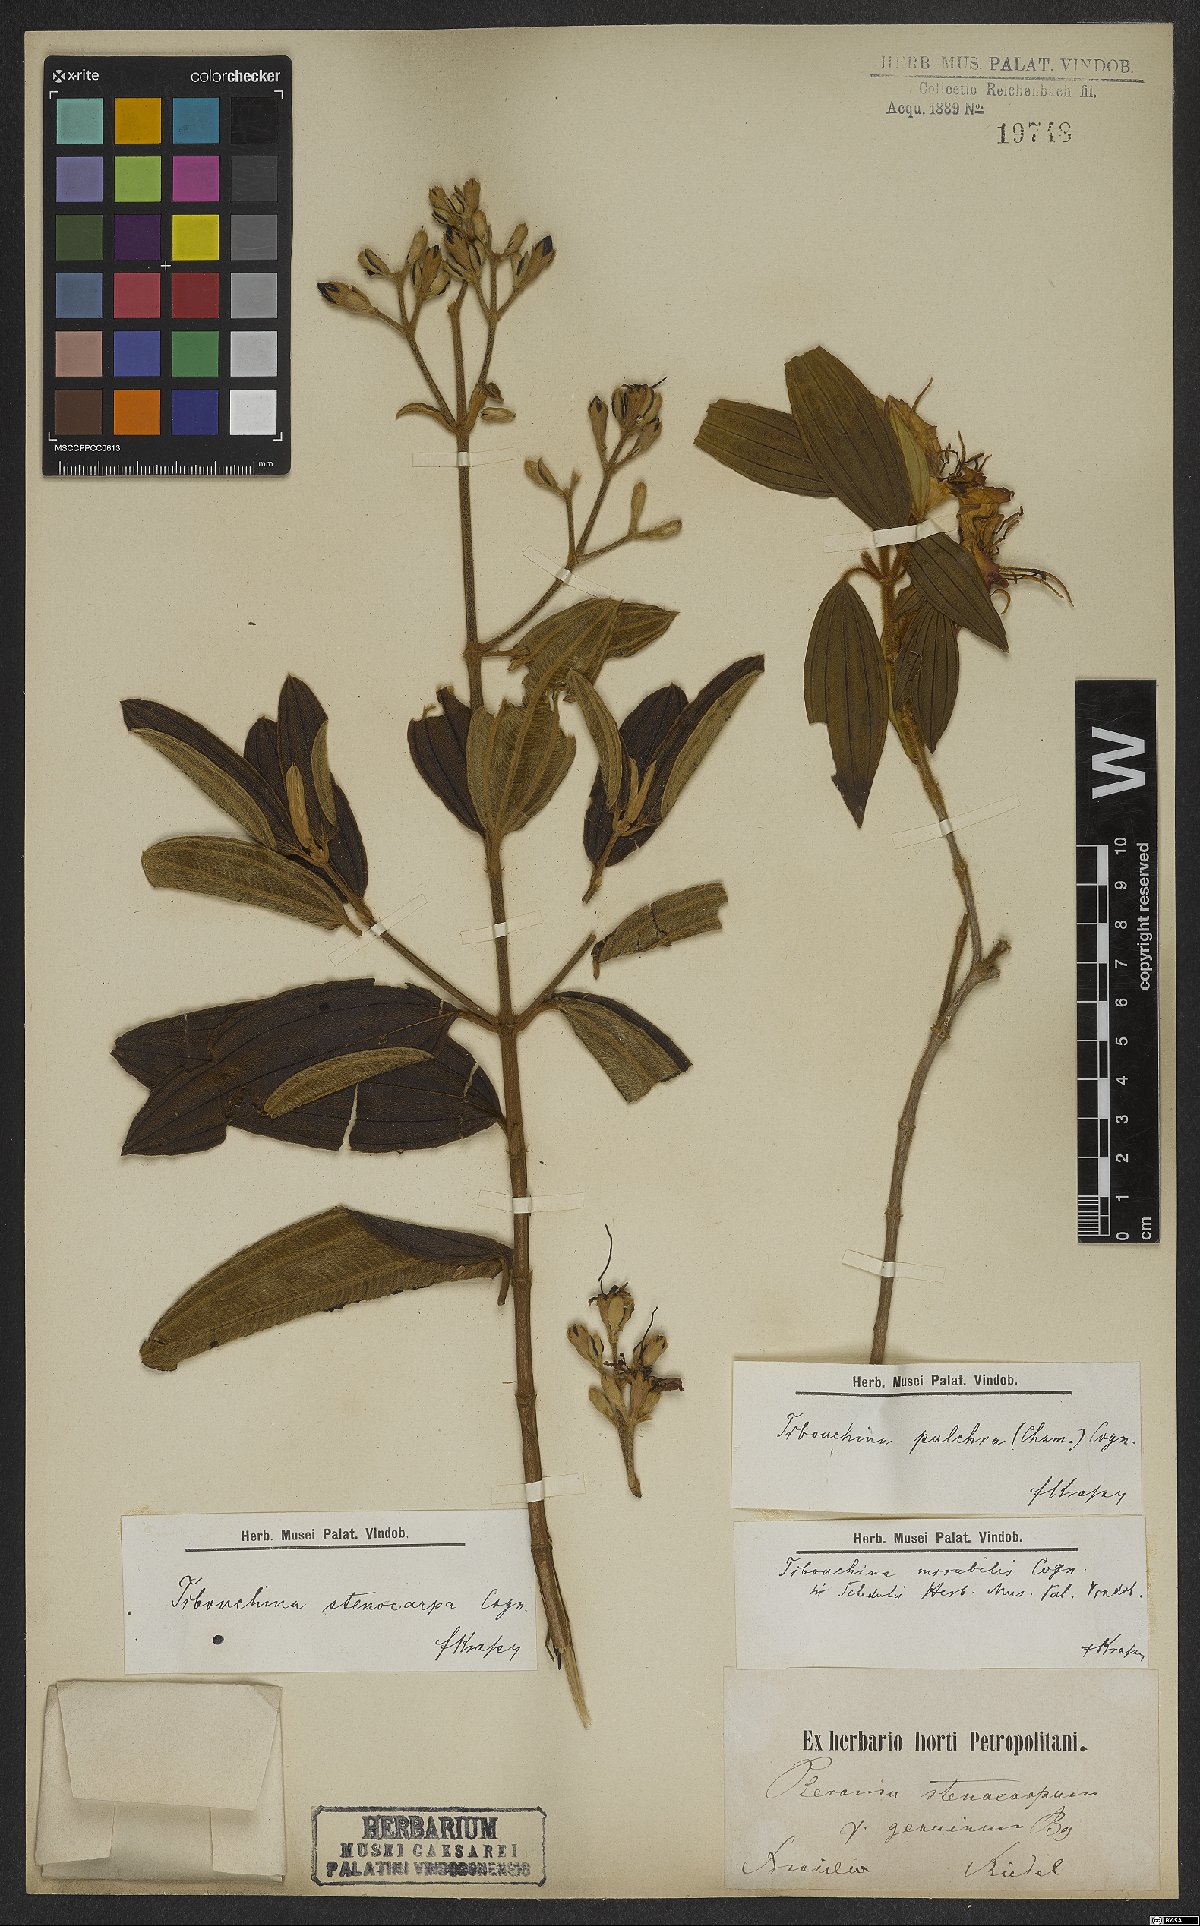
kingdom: Plantae
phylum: Tracheophyta
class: Magnoliopsida
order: Myrtales
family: Melastomataceae
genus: Pleroma
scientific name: Pleroma raddianum
